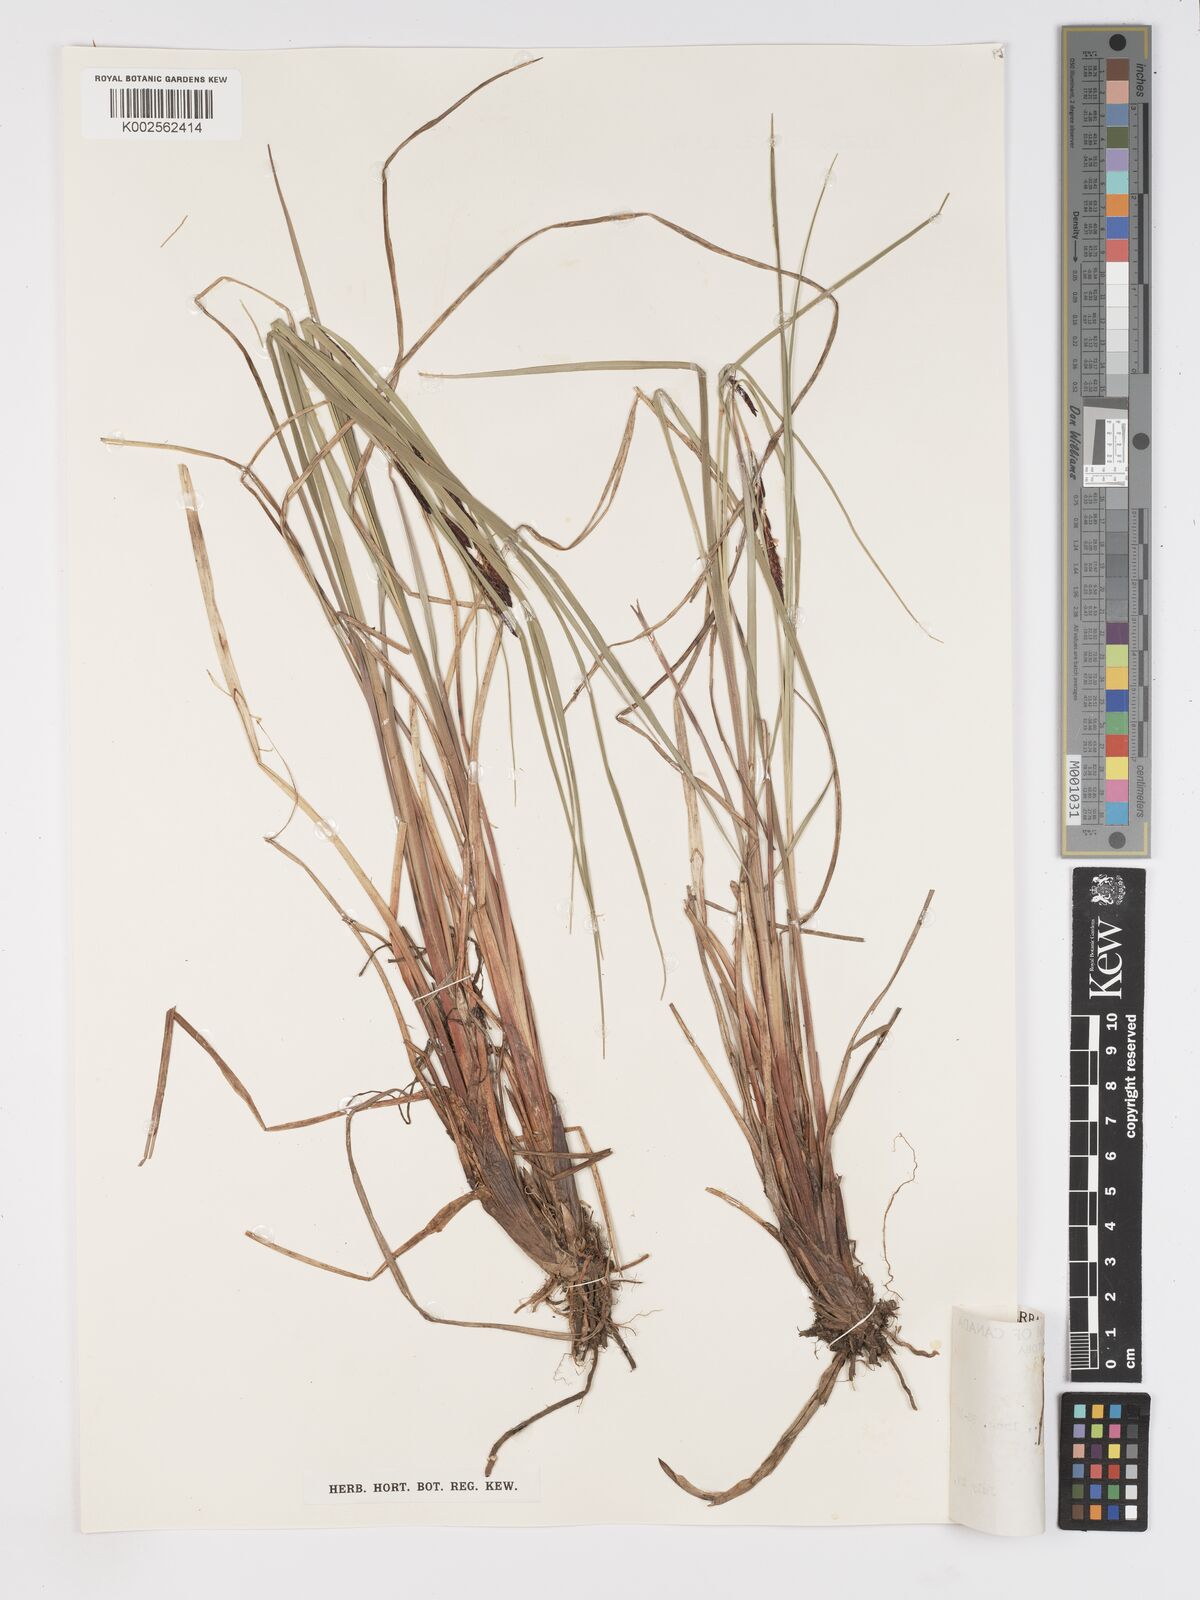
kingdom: Plantae
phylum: Tracheophyta
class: Liliopsida
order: Poales
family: Cyperaceae
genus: Carex
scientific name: Carex aquatilis
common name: Water sedge
